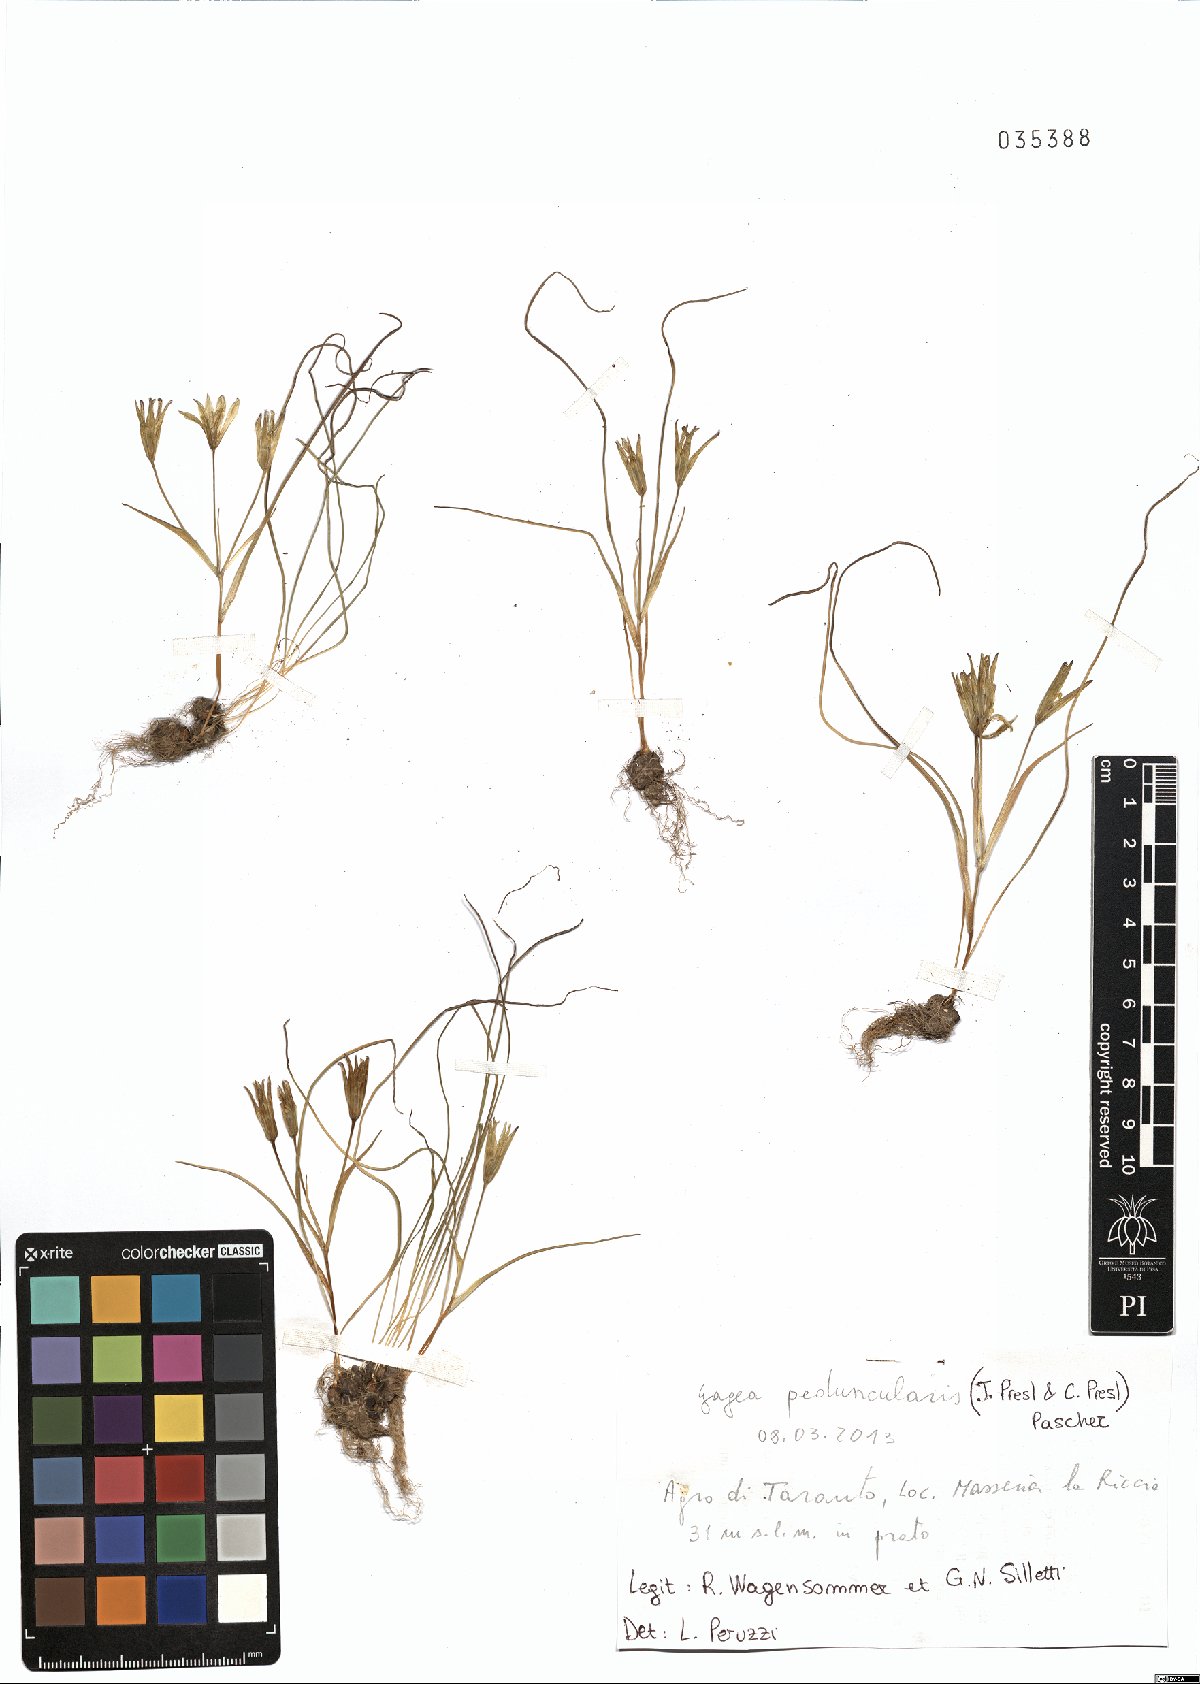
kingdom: Plantae
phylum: Tracheophyta
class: Liliopsida
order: Liliales
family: Liliaceae
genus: Gagea
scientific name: Gagea peduncularis
